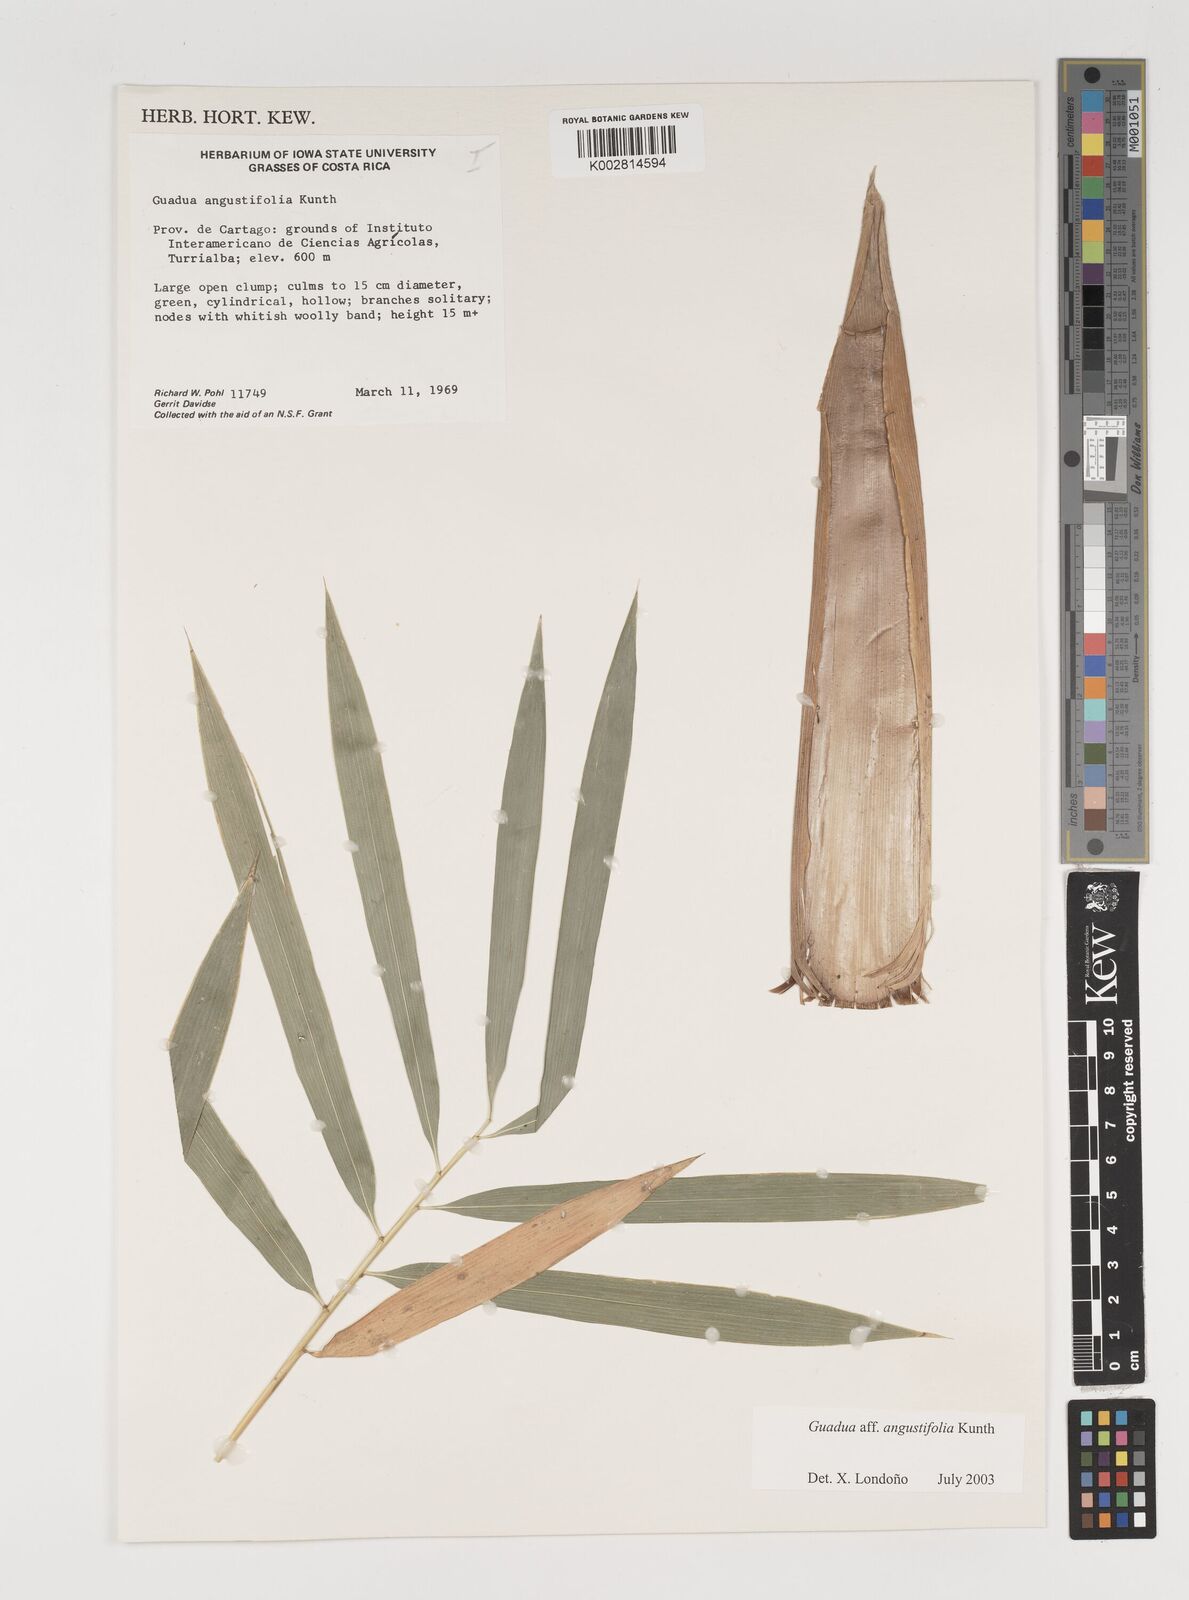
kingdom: Plantae
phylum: Tracheophyta
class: Liliopsida
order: Poales
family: Poaceae
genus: Guadua
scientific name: Guadua angustifolia
